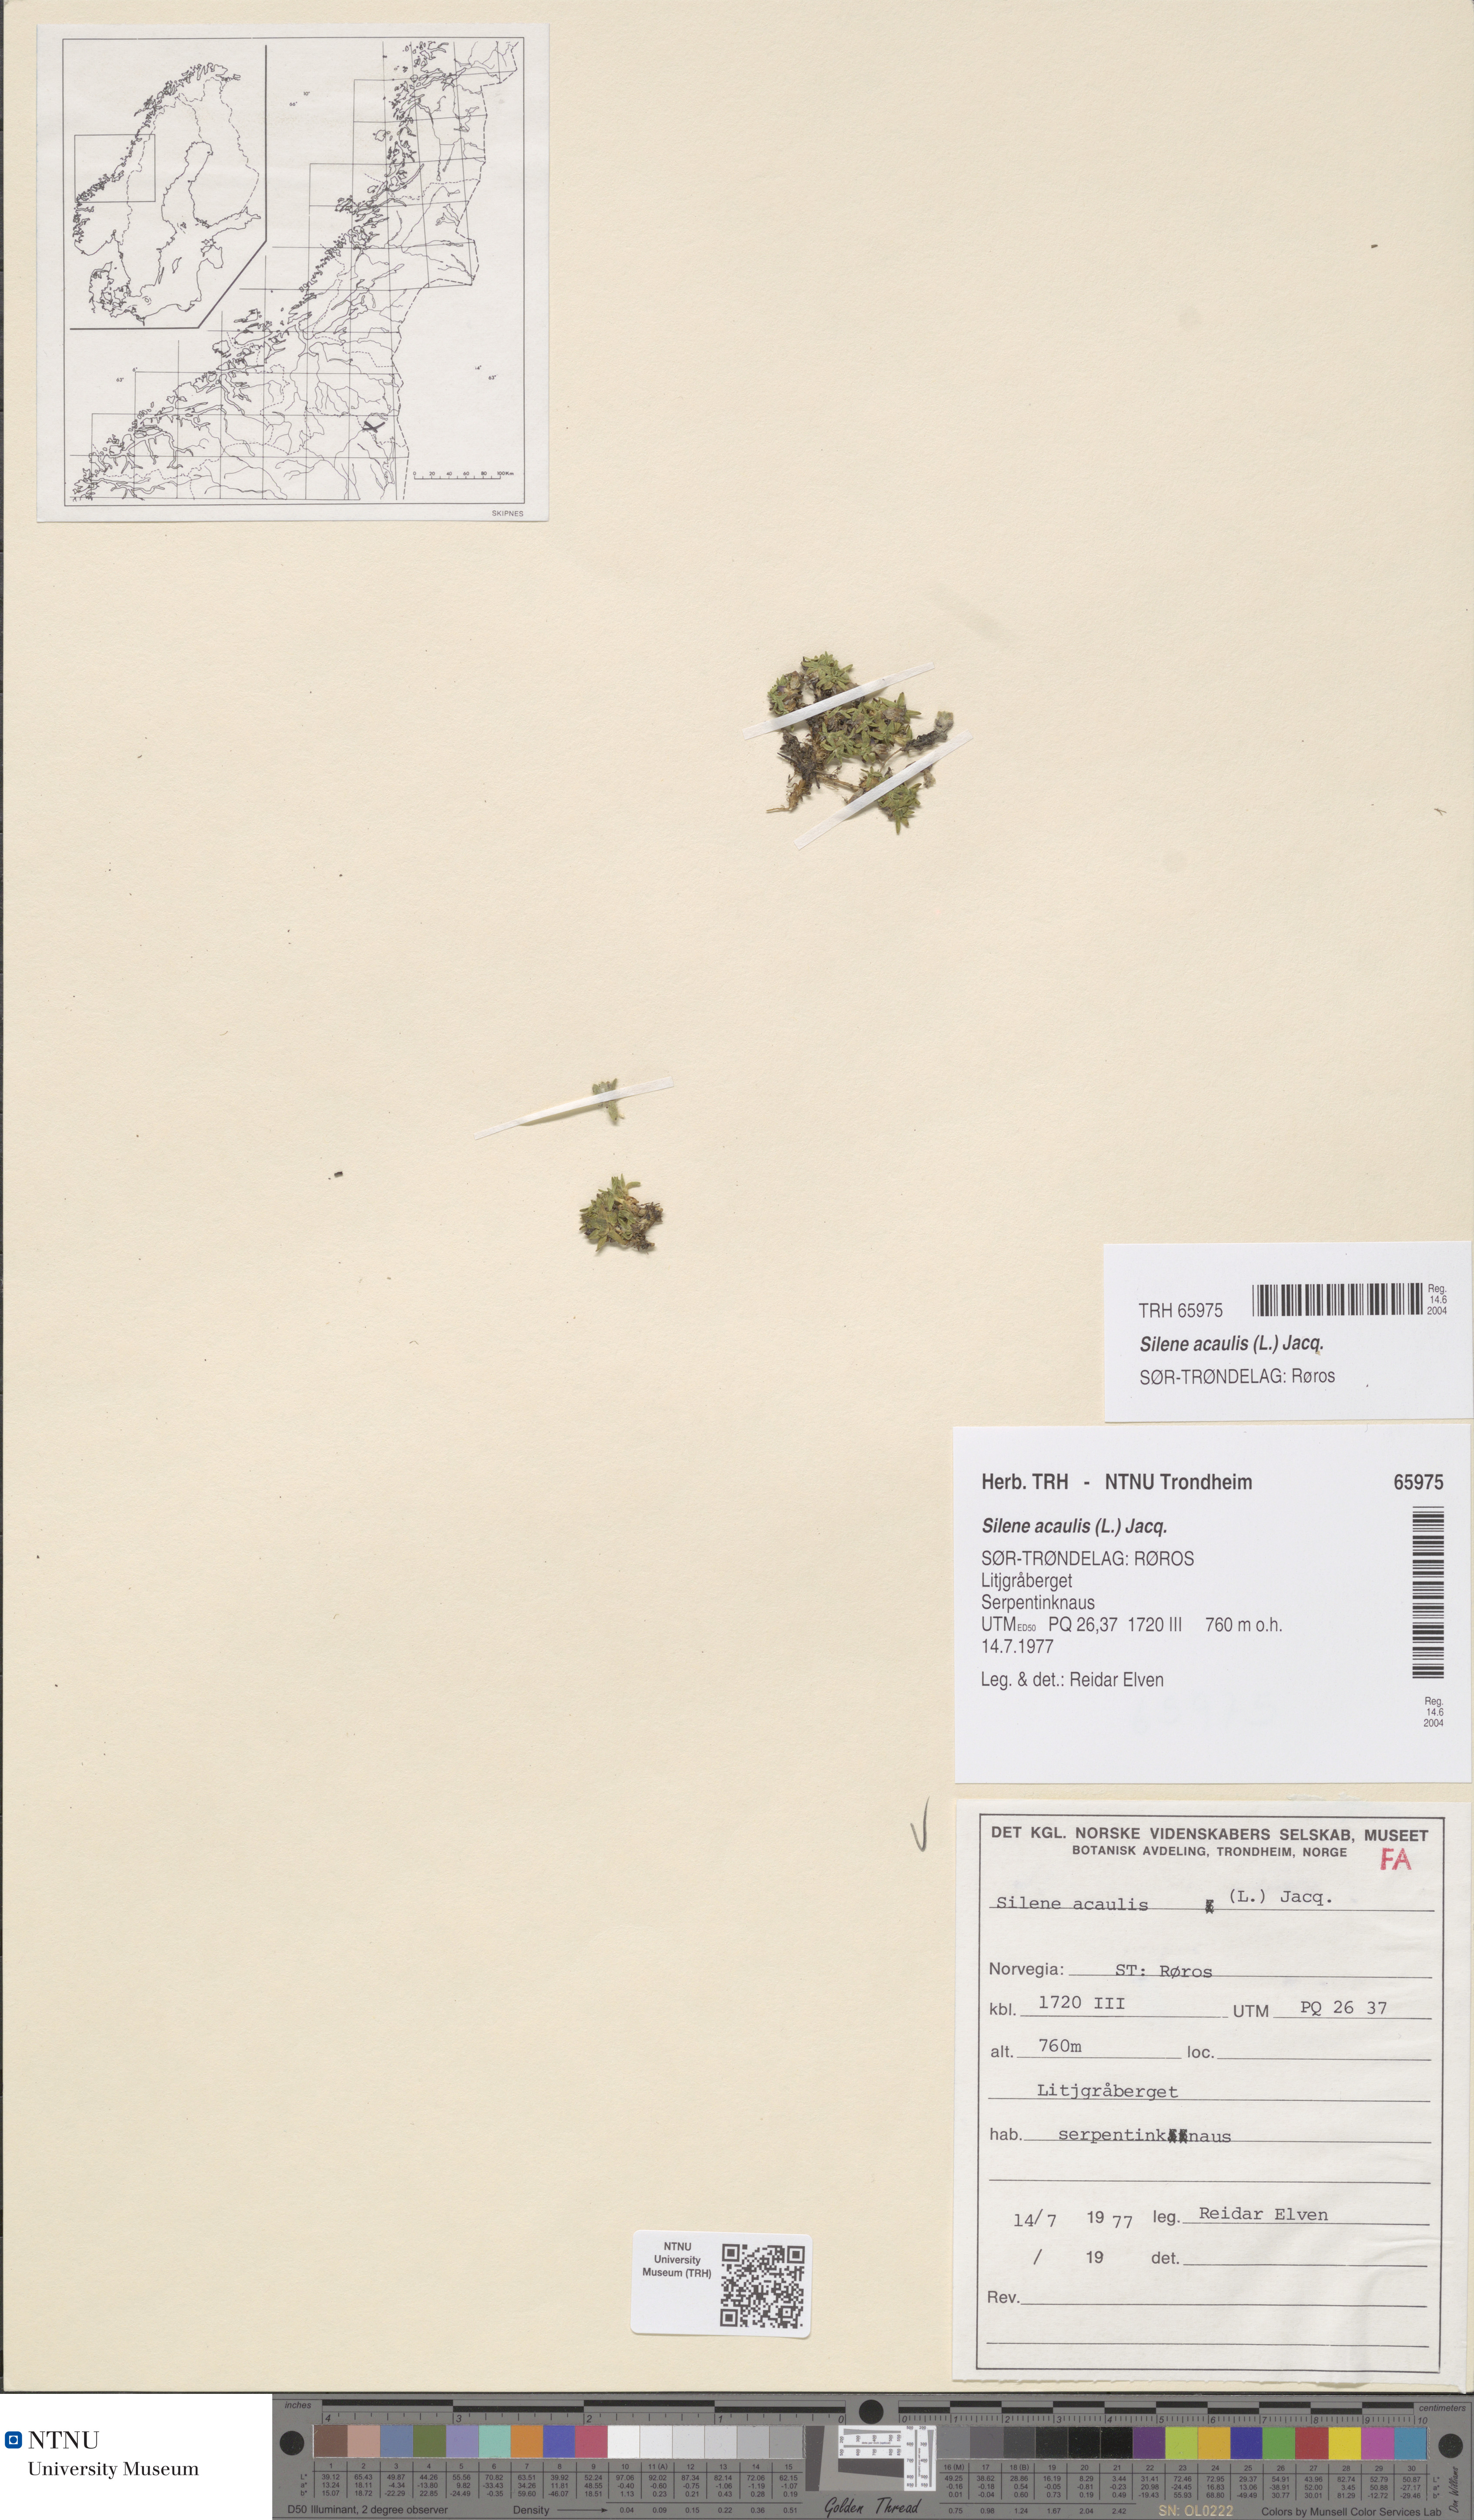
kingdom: Plantae
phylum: Tracheophyta
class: Magnoliopsida
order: Caryophyllales
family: Caryophyllaceae
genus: Silene
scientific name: Silene acaulis
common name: Moss campion
